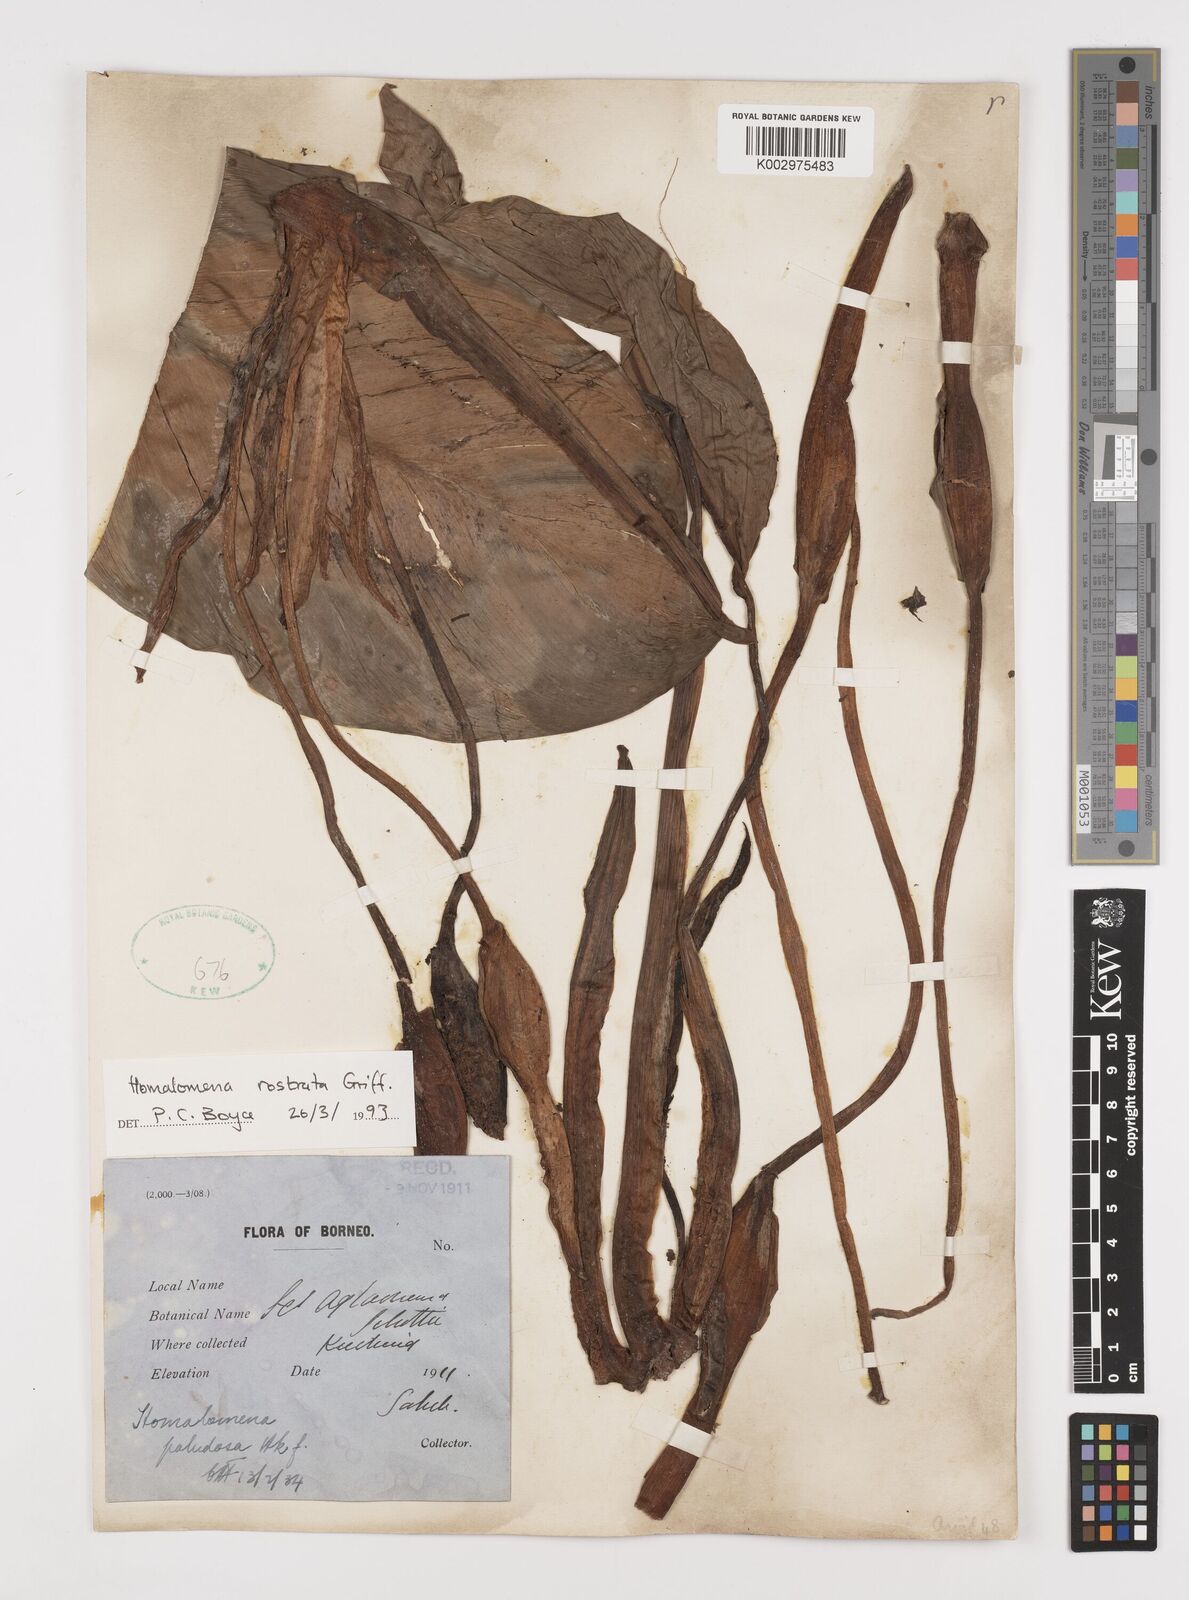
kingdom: Plantae
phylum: Tracheophyta
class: Liliopsida
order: Alismatales
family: Araceae
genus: Homalomena
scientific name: Homalomena rostrata
